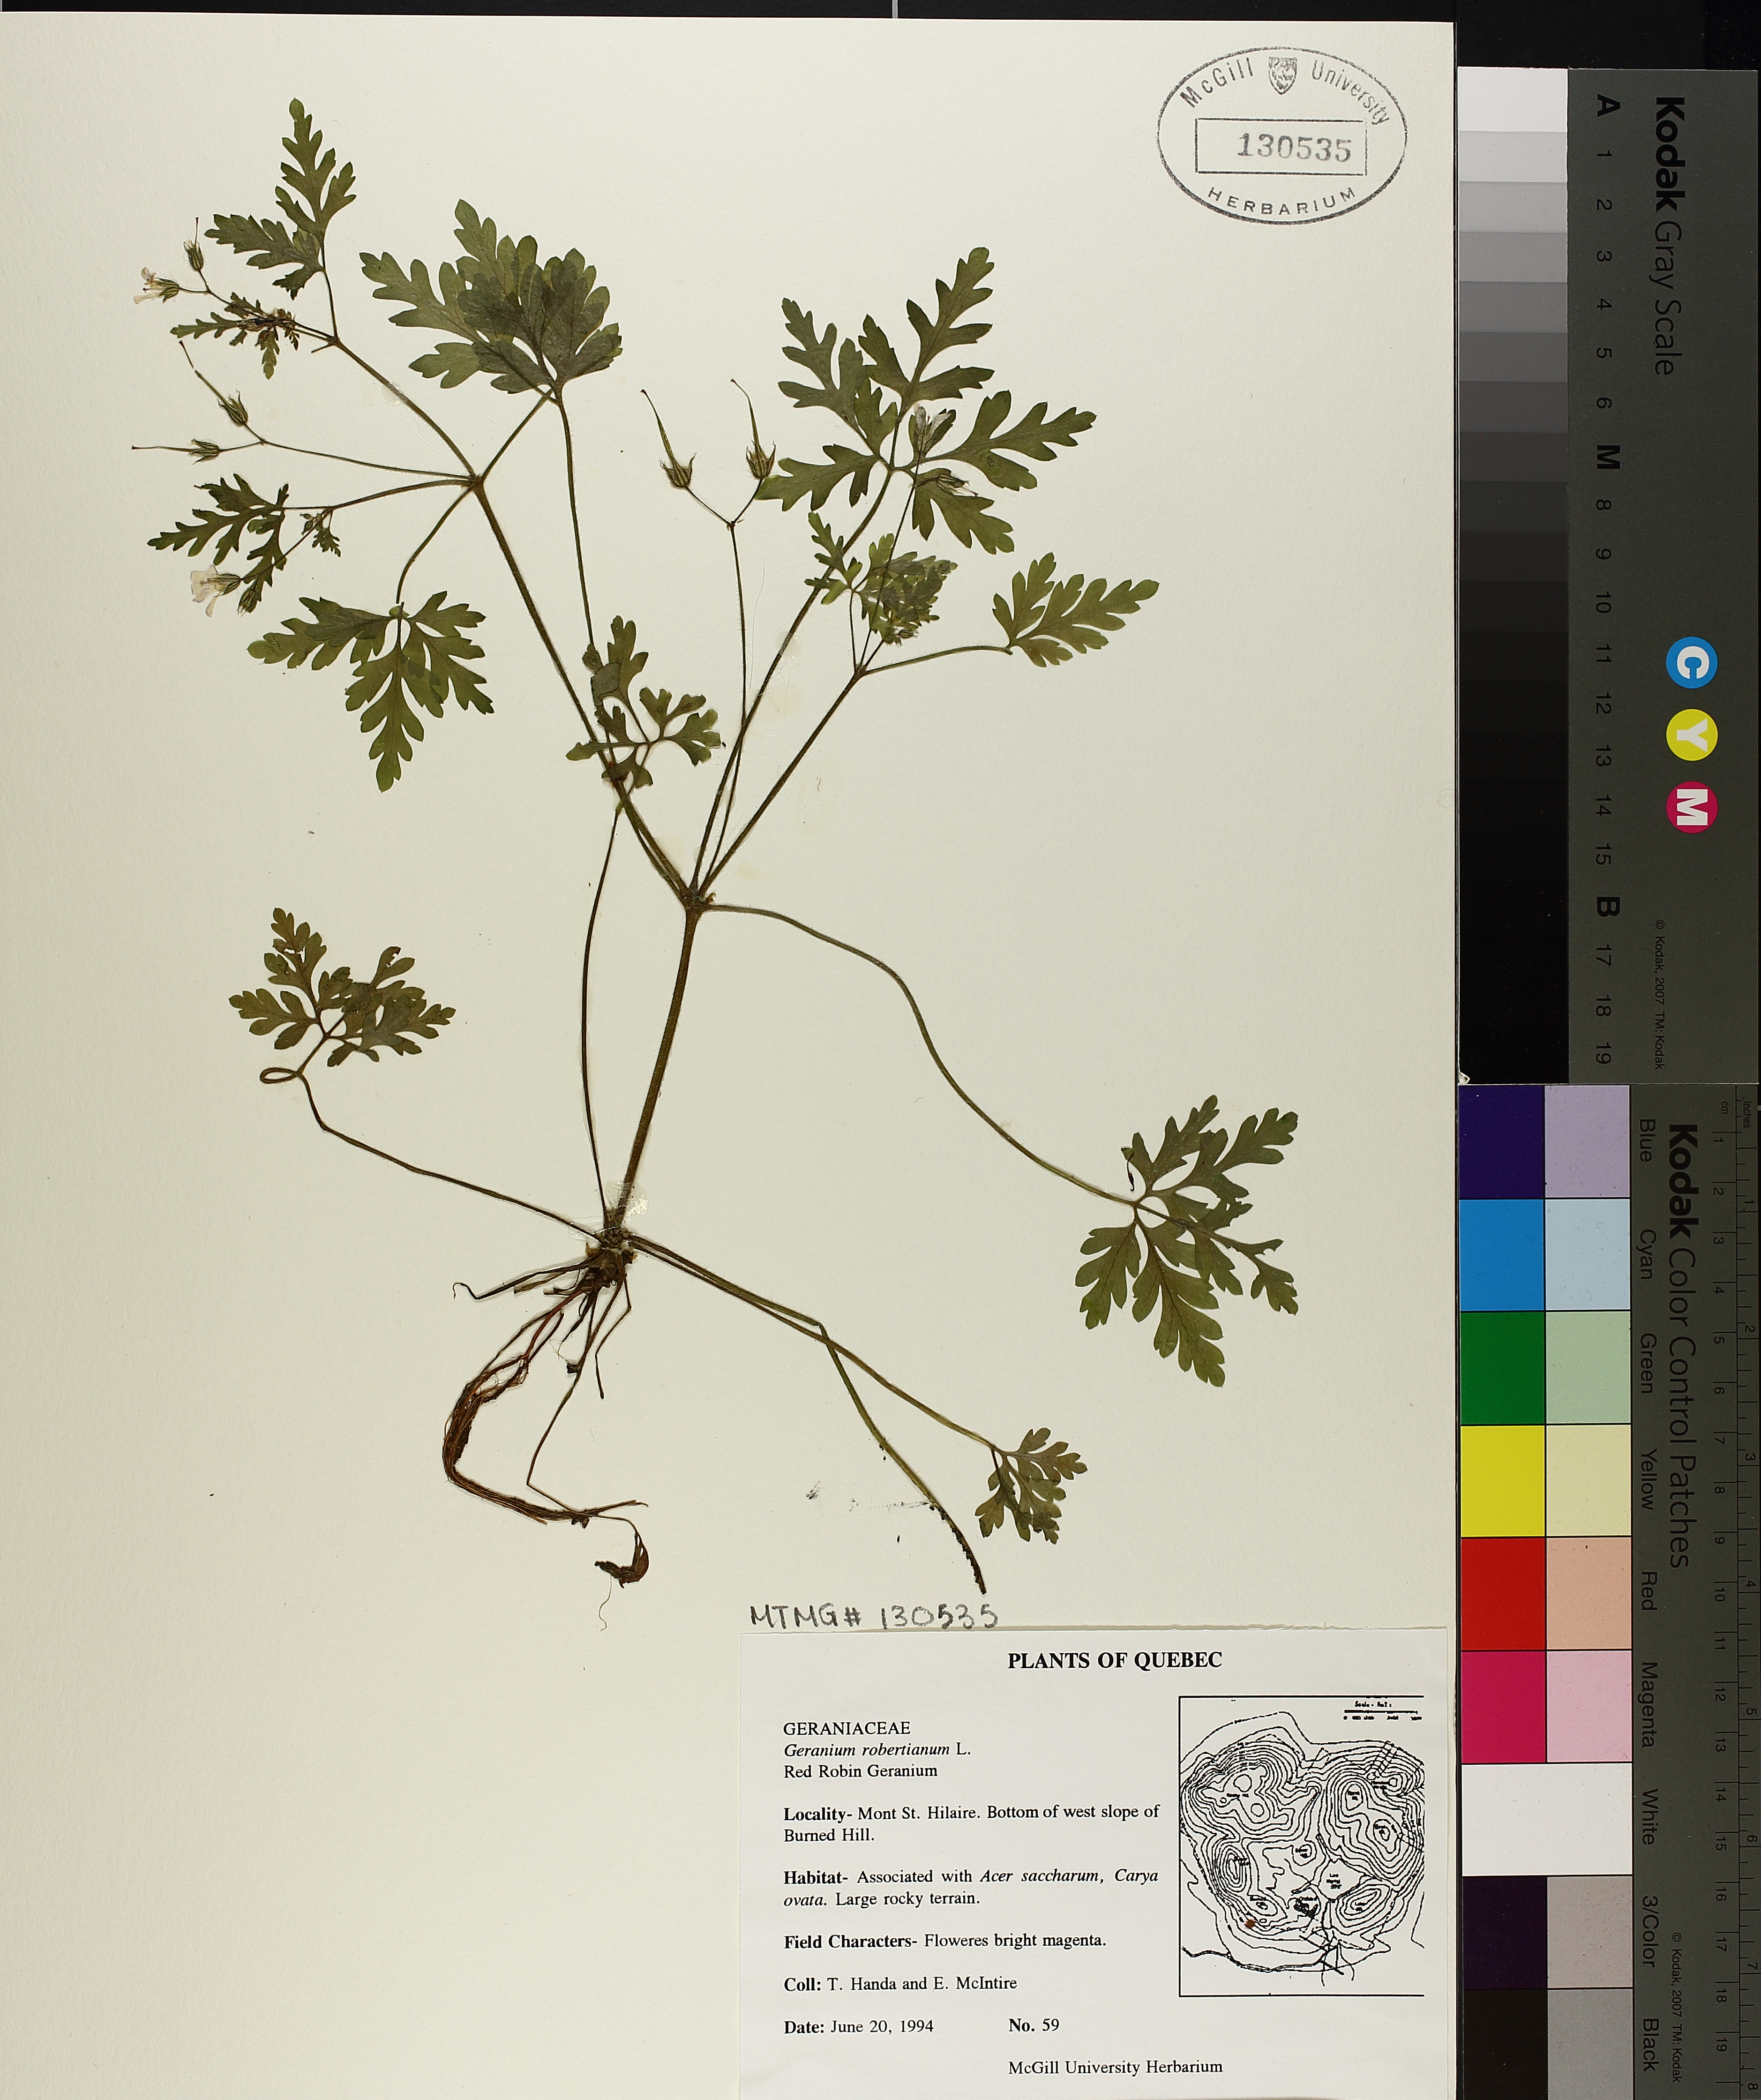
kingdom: Plantae
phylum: Tracheophyta
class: Magnoliopsida
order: Geraniales
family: Geraniaceae
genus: Geranium
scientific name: Geranium robertianum
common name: Herb-robert
